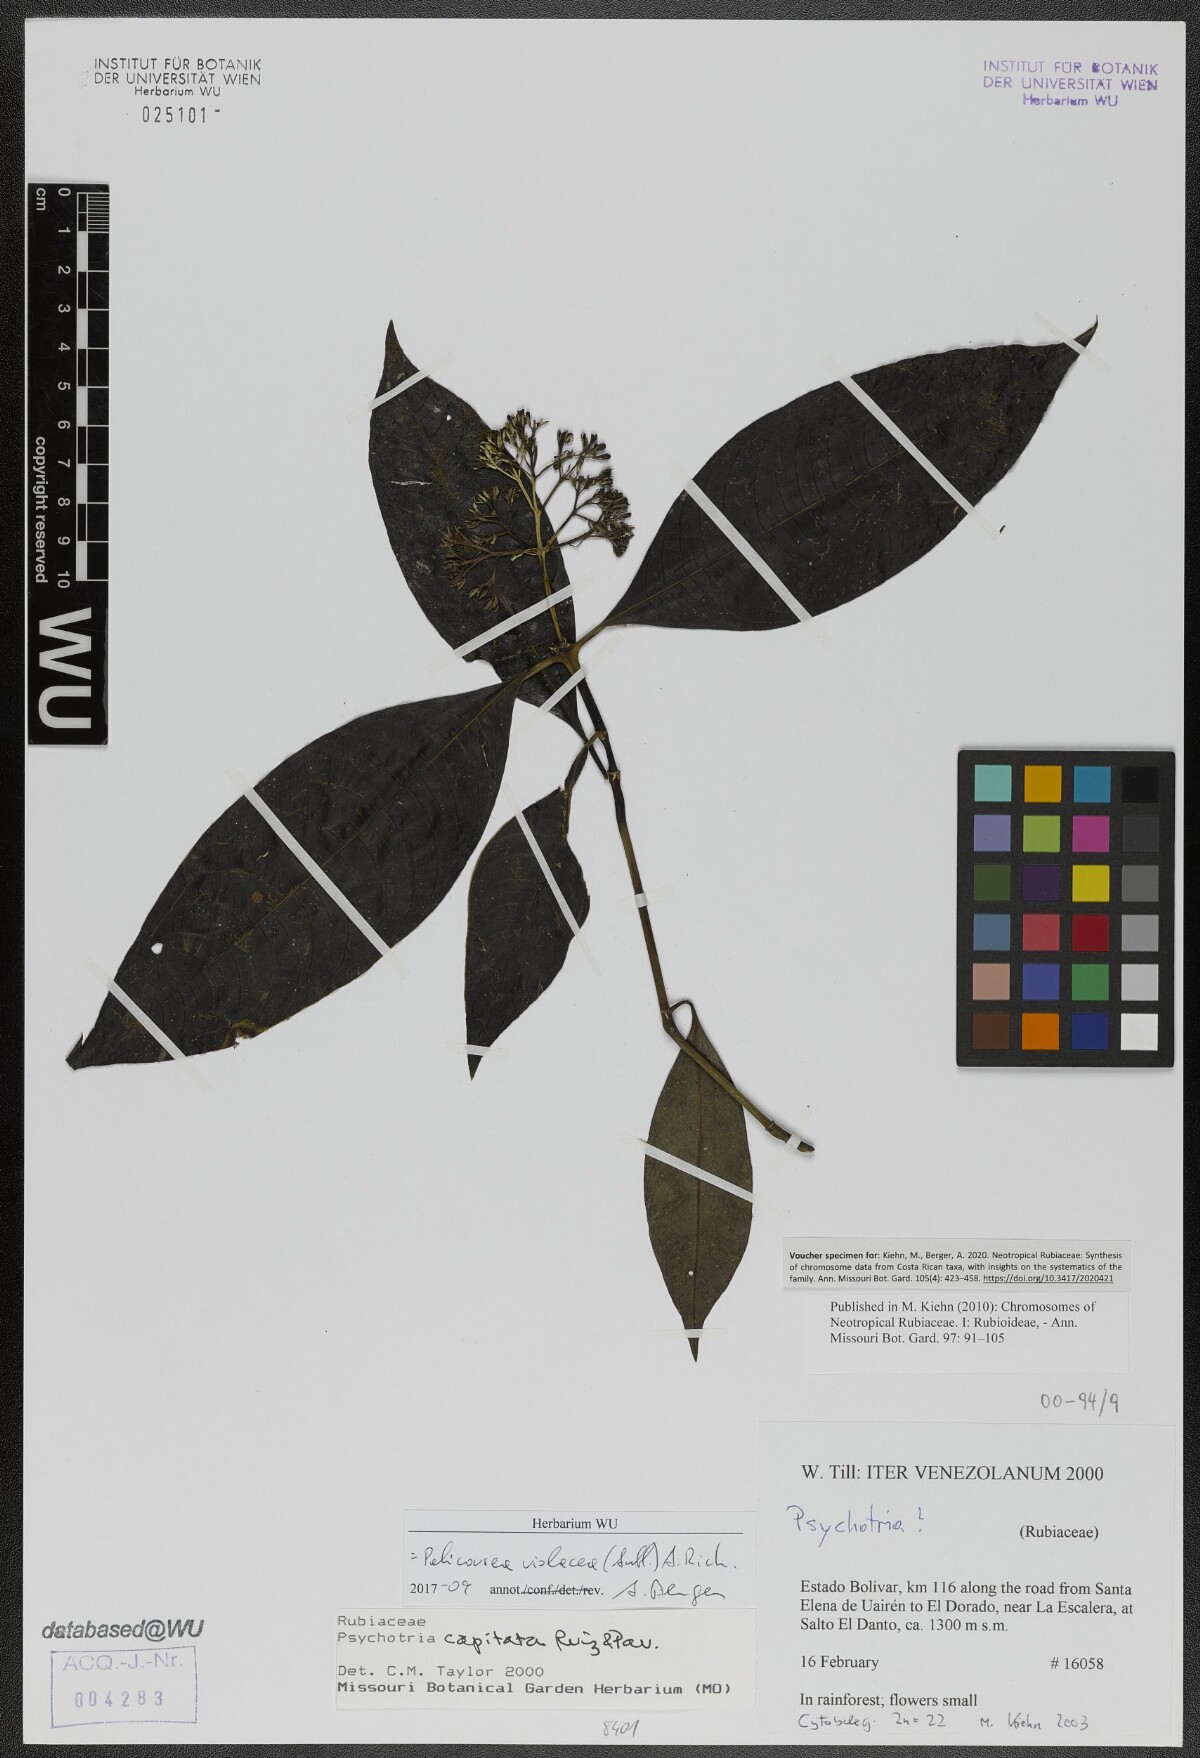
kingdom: Plantae
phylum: Tracheophyta
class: Magnoliopsida
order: Gentianales
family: Rubiaceae
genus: Palicourea
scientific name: Palicourea violacea
